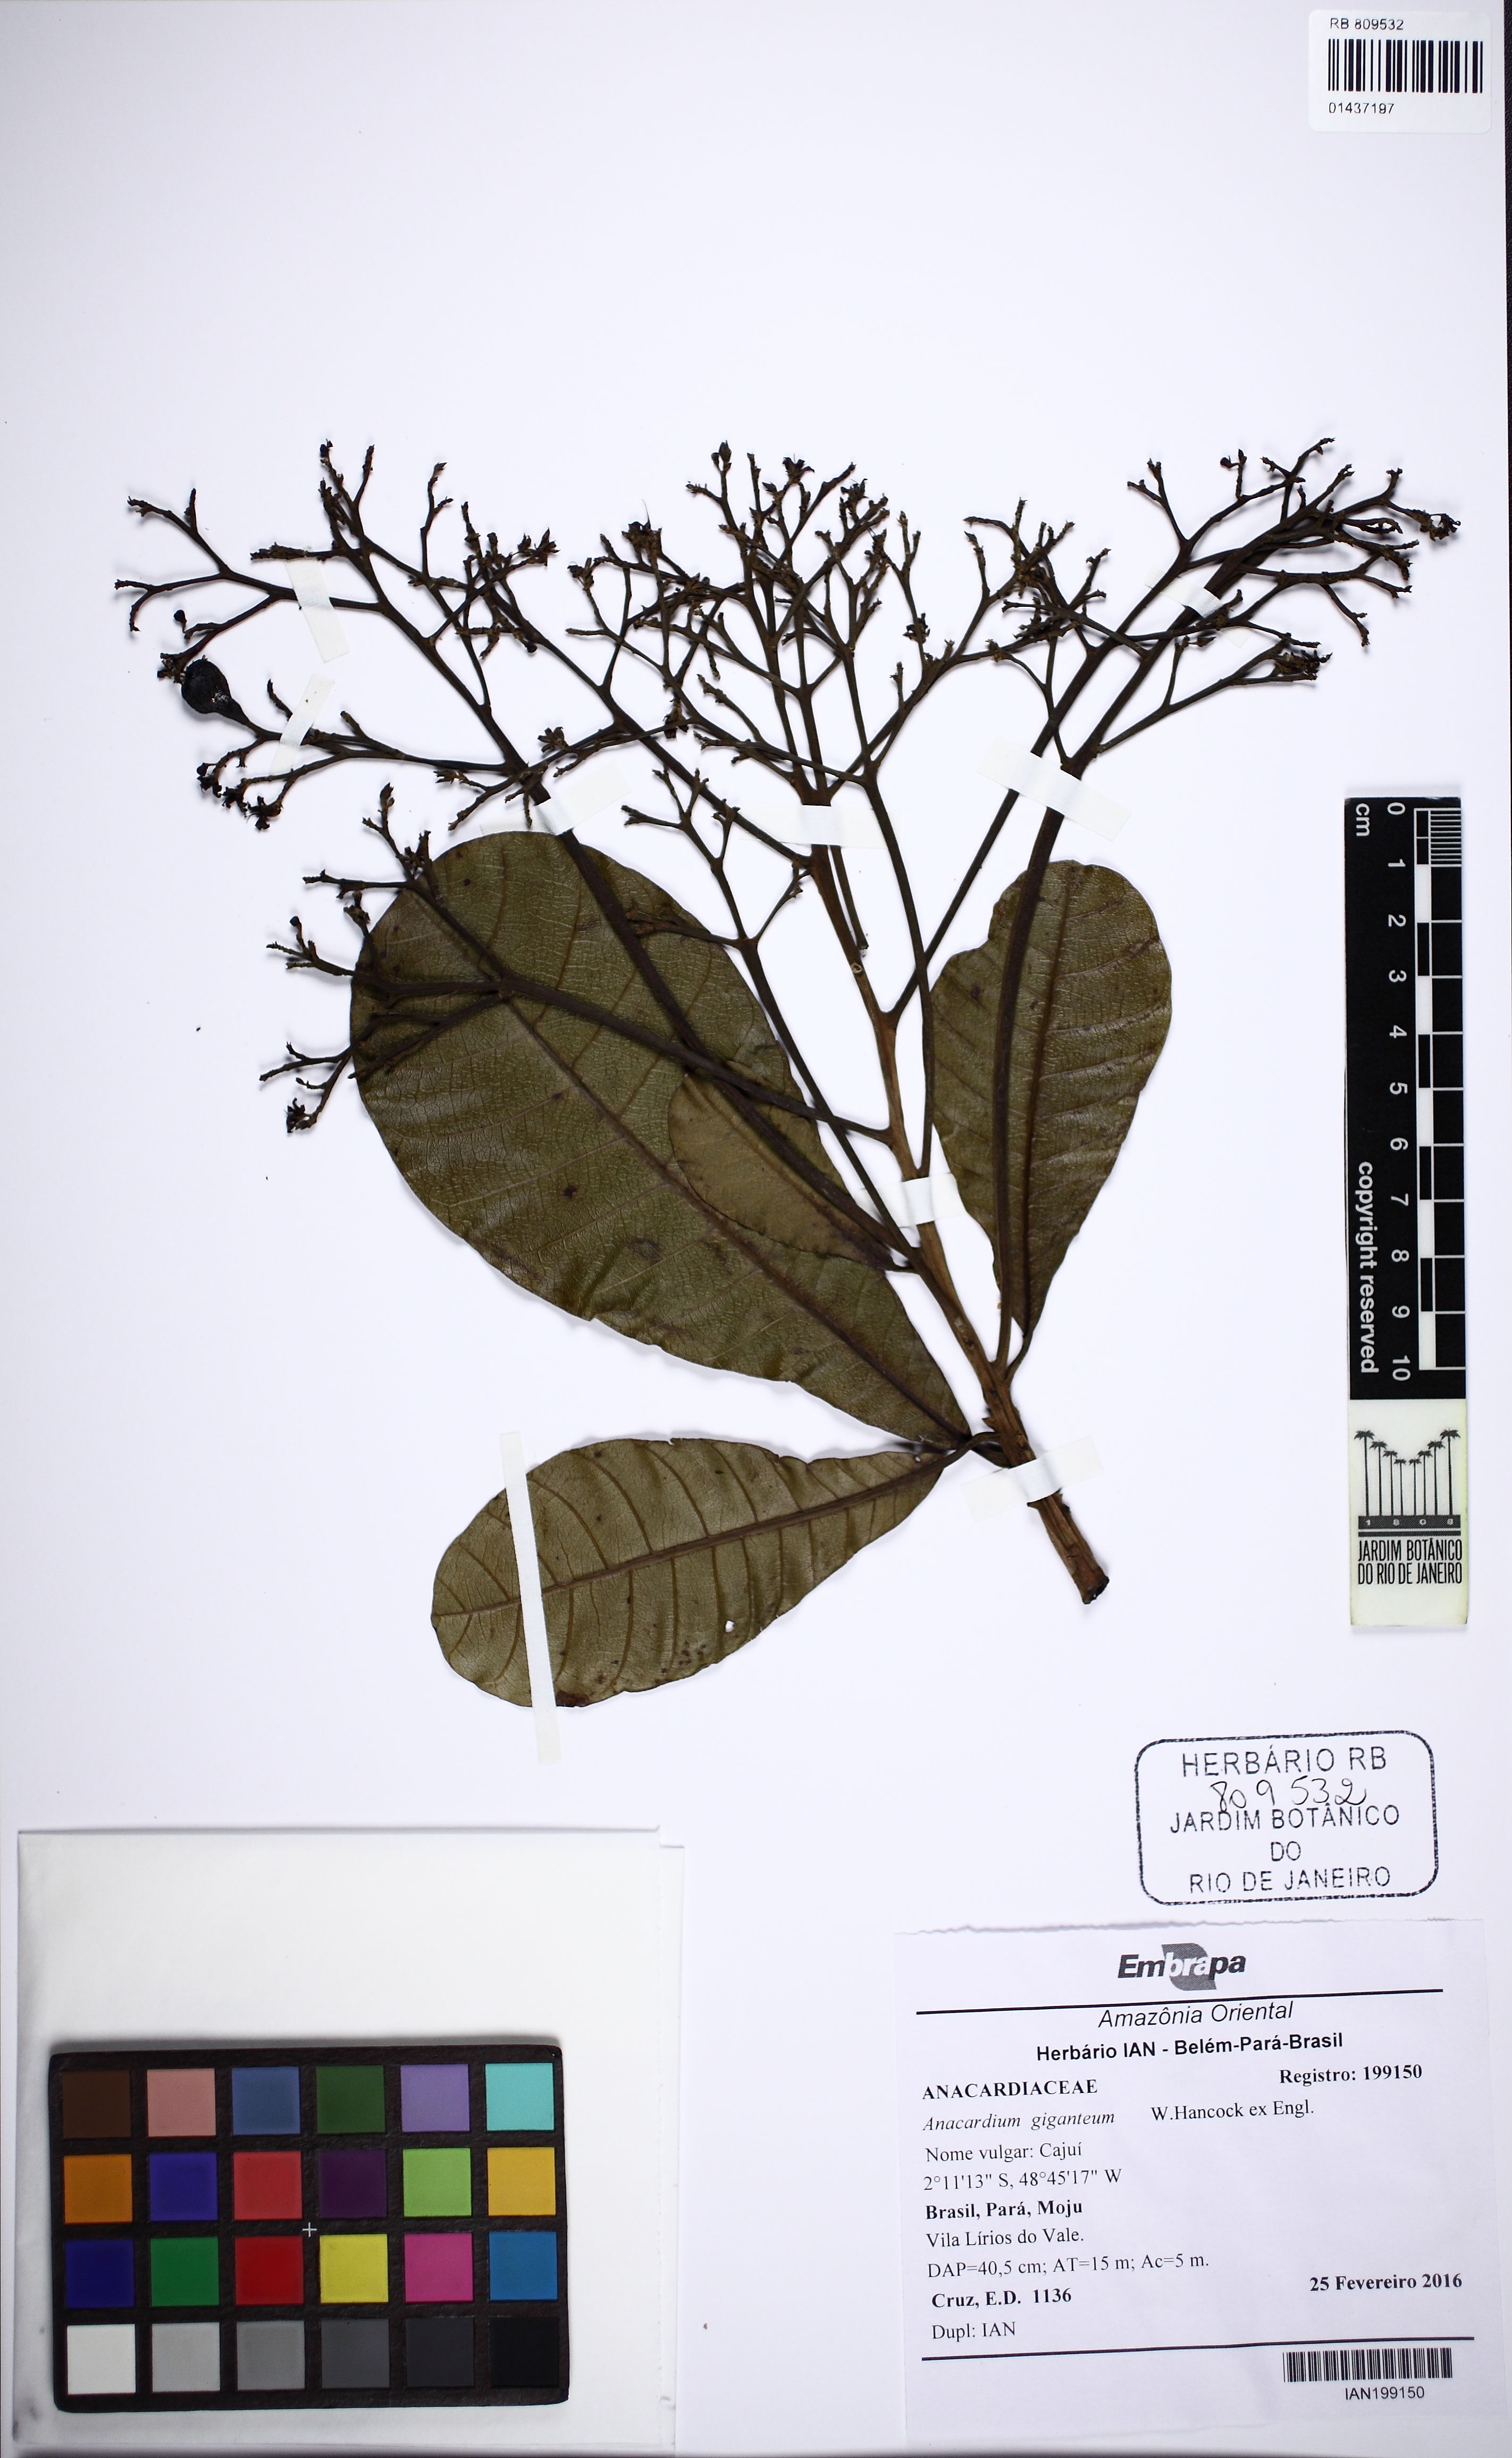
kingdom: Plantae
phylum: Tracheophyta
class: Magnoliopsida
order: Sapindales
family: Anacardiaceae
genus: Anacardium
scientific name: Anacardium giganteum
